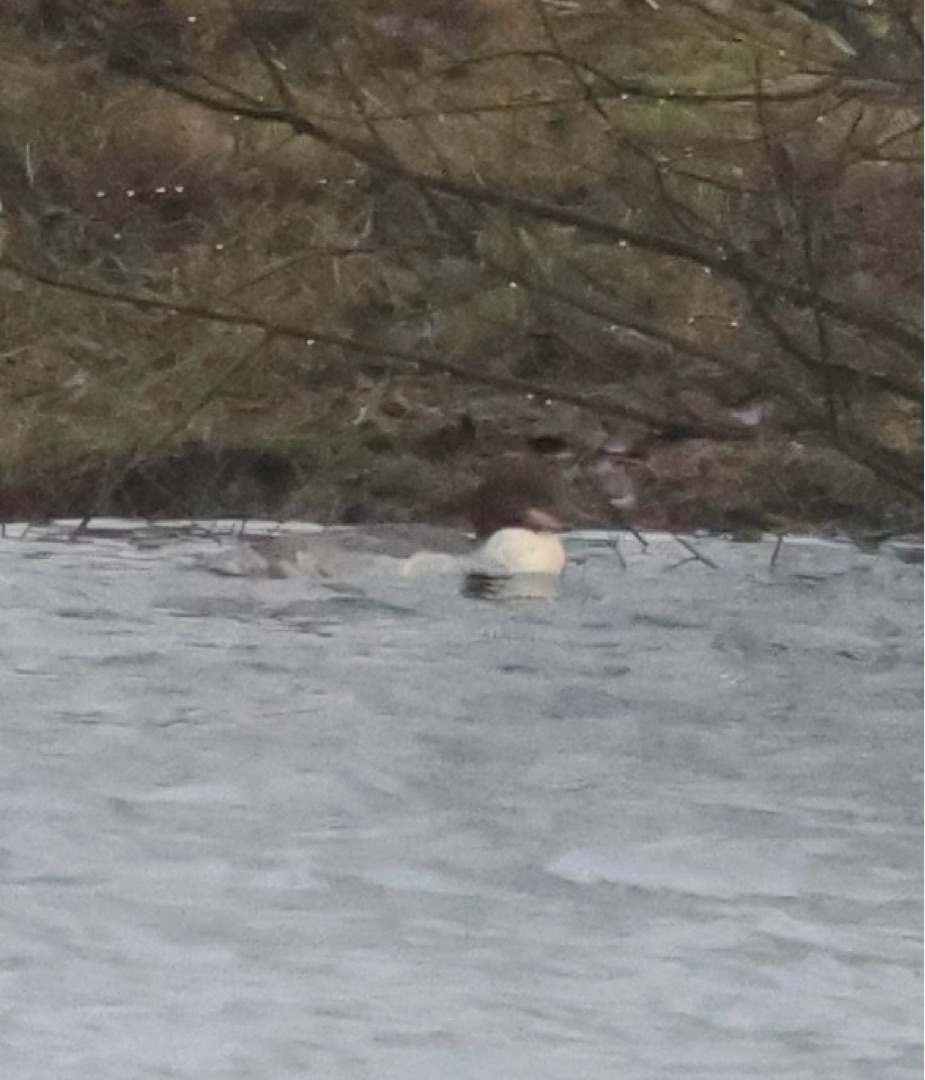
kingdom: Animalia
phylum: Chordata
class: Aves
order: Anseriformes
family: Anatidae
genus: Mergus
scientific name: Mergus merganser
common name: Stor skallesluger
